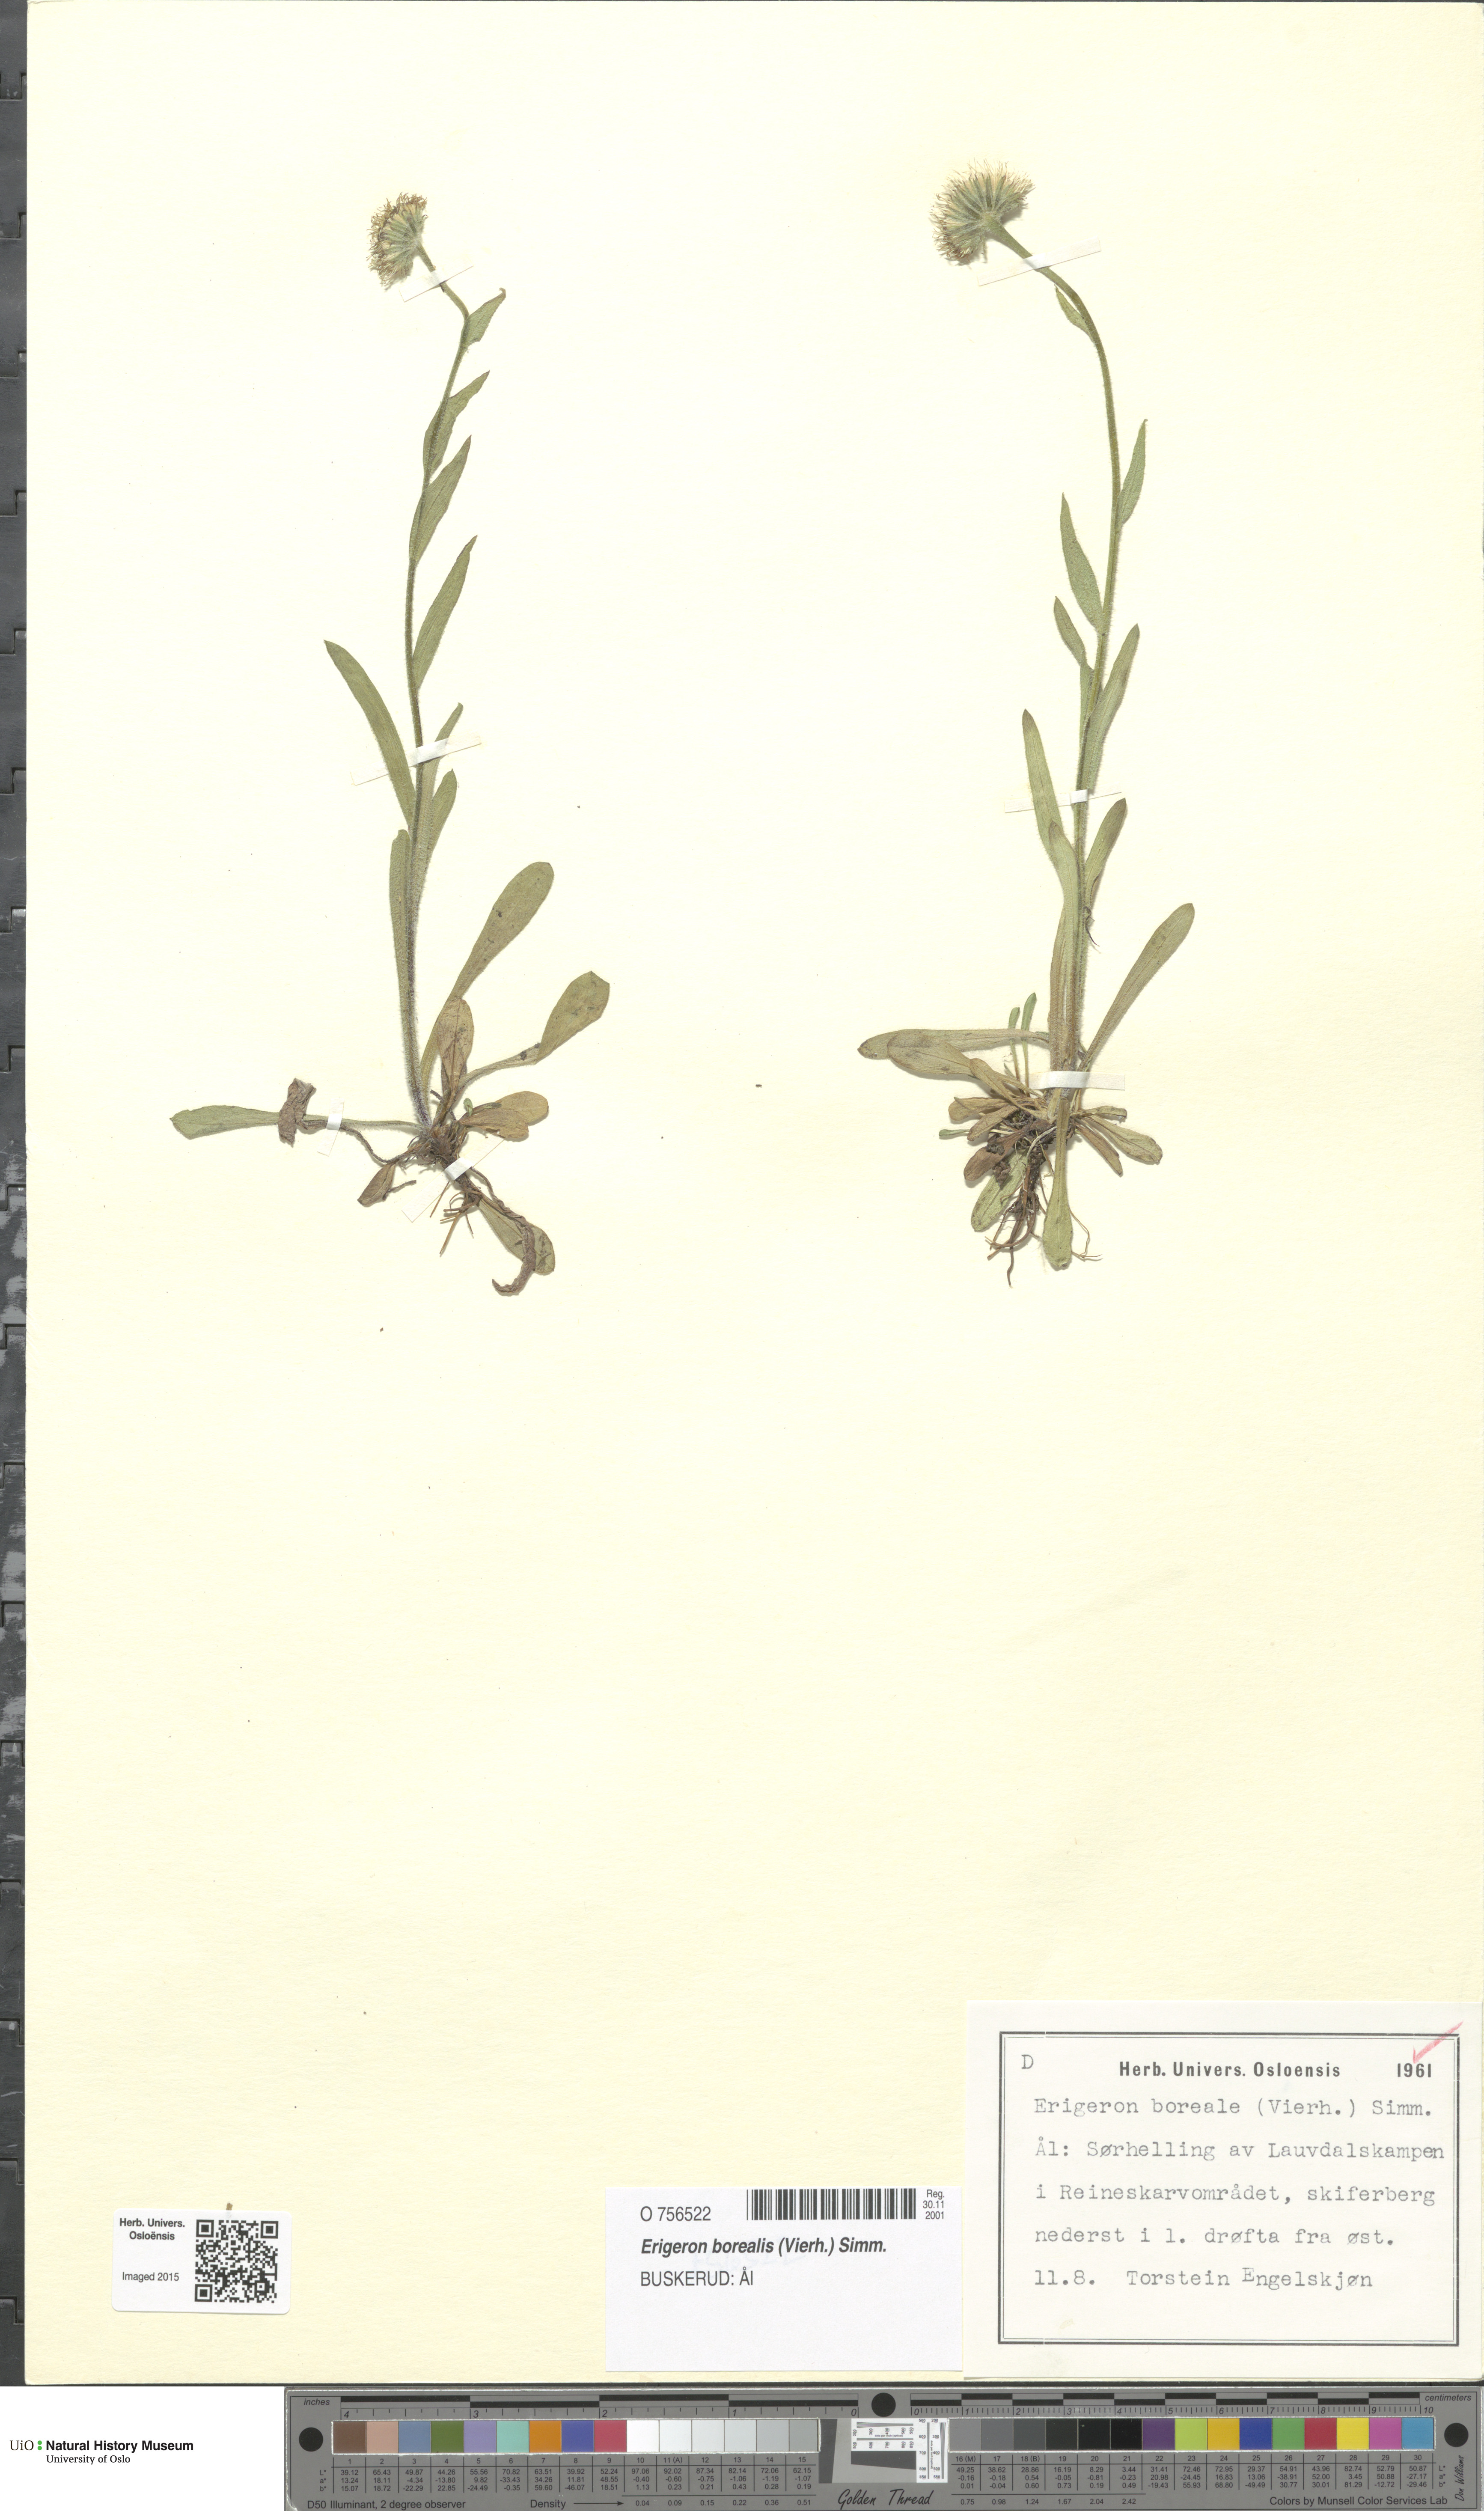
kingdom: Plantae
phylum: Tracheophyta
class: Magnoliopsida
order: Asterales
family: Asteraceae
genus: Erigeron
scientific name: Erigeron borealis
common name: Alpine fleabane
